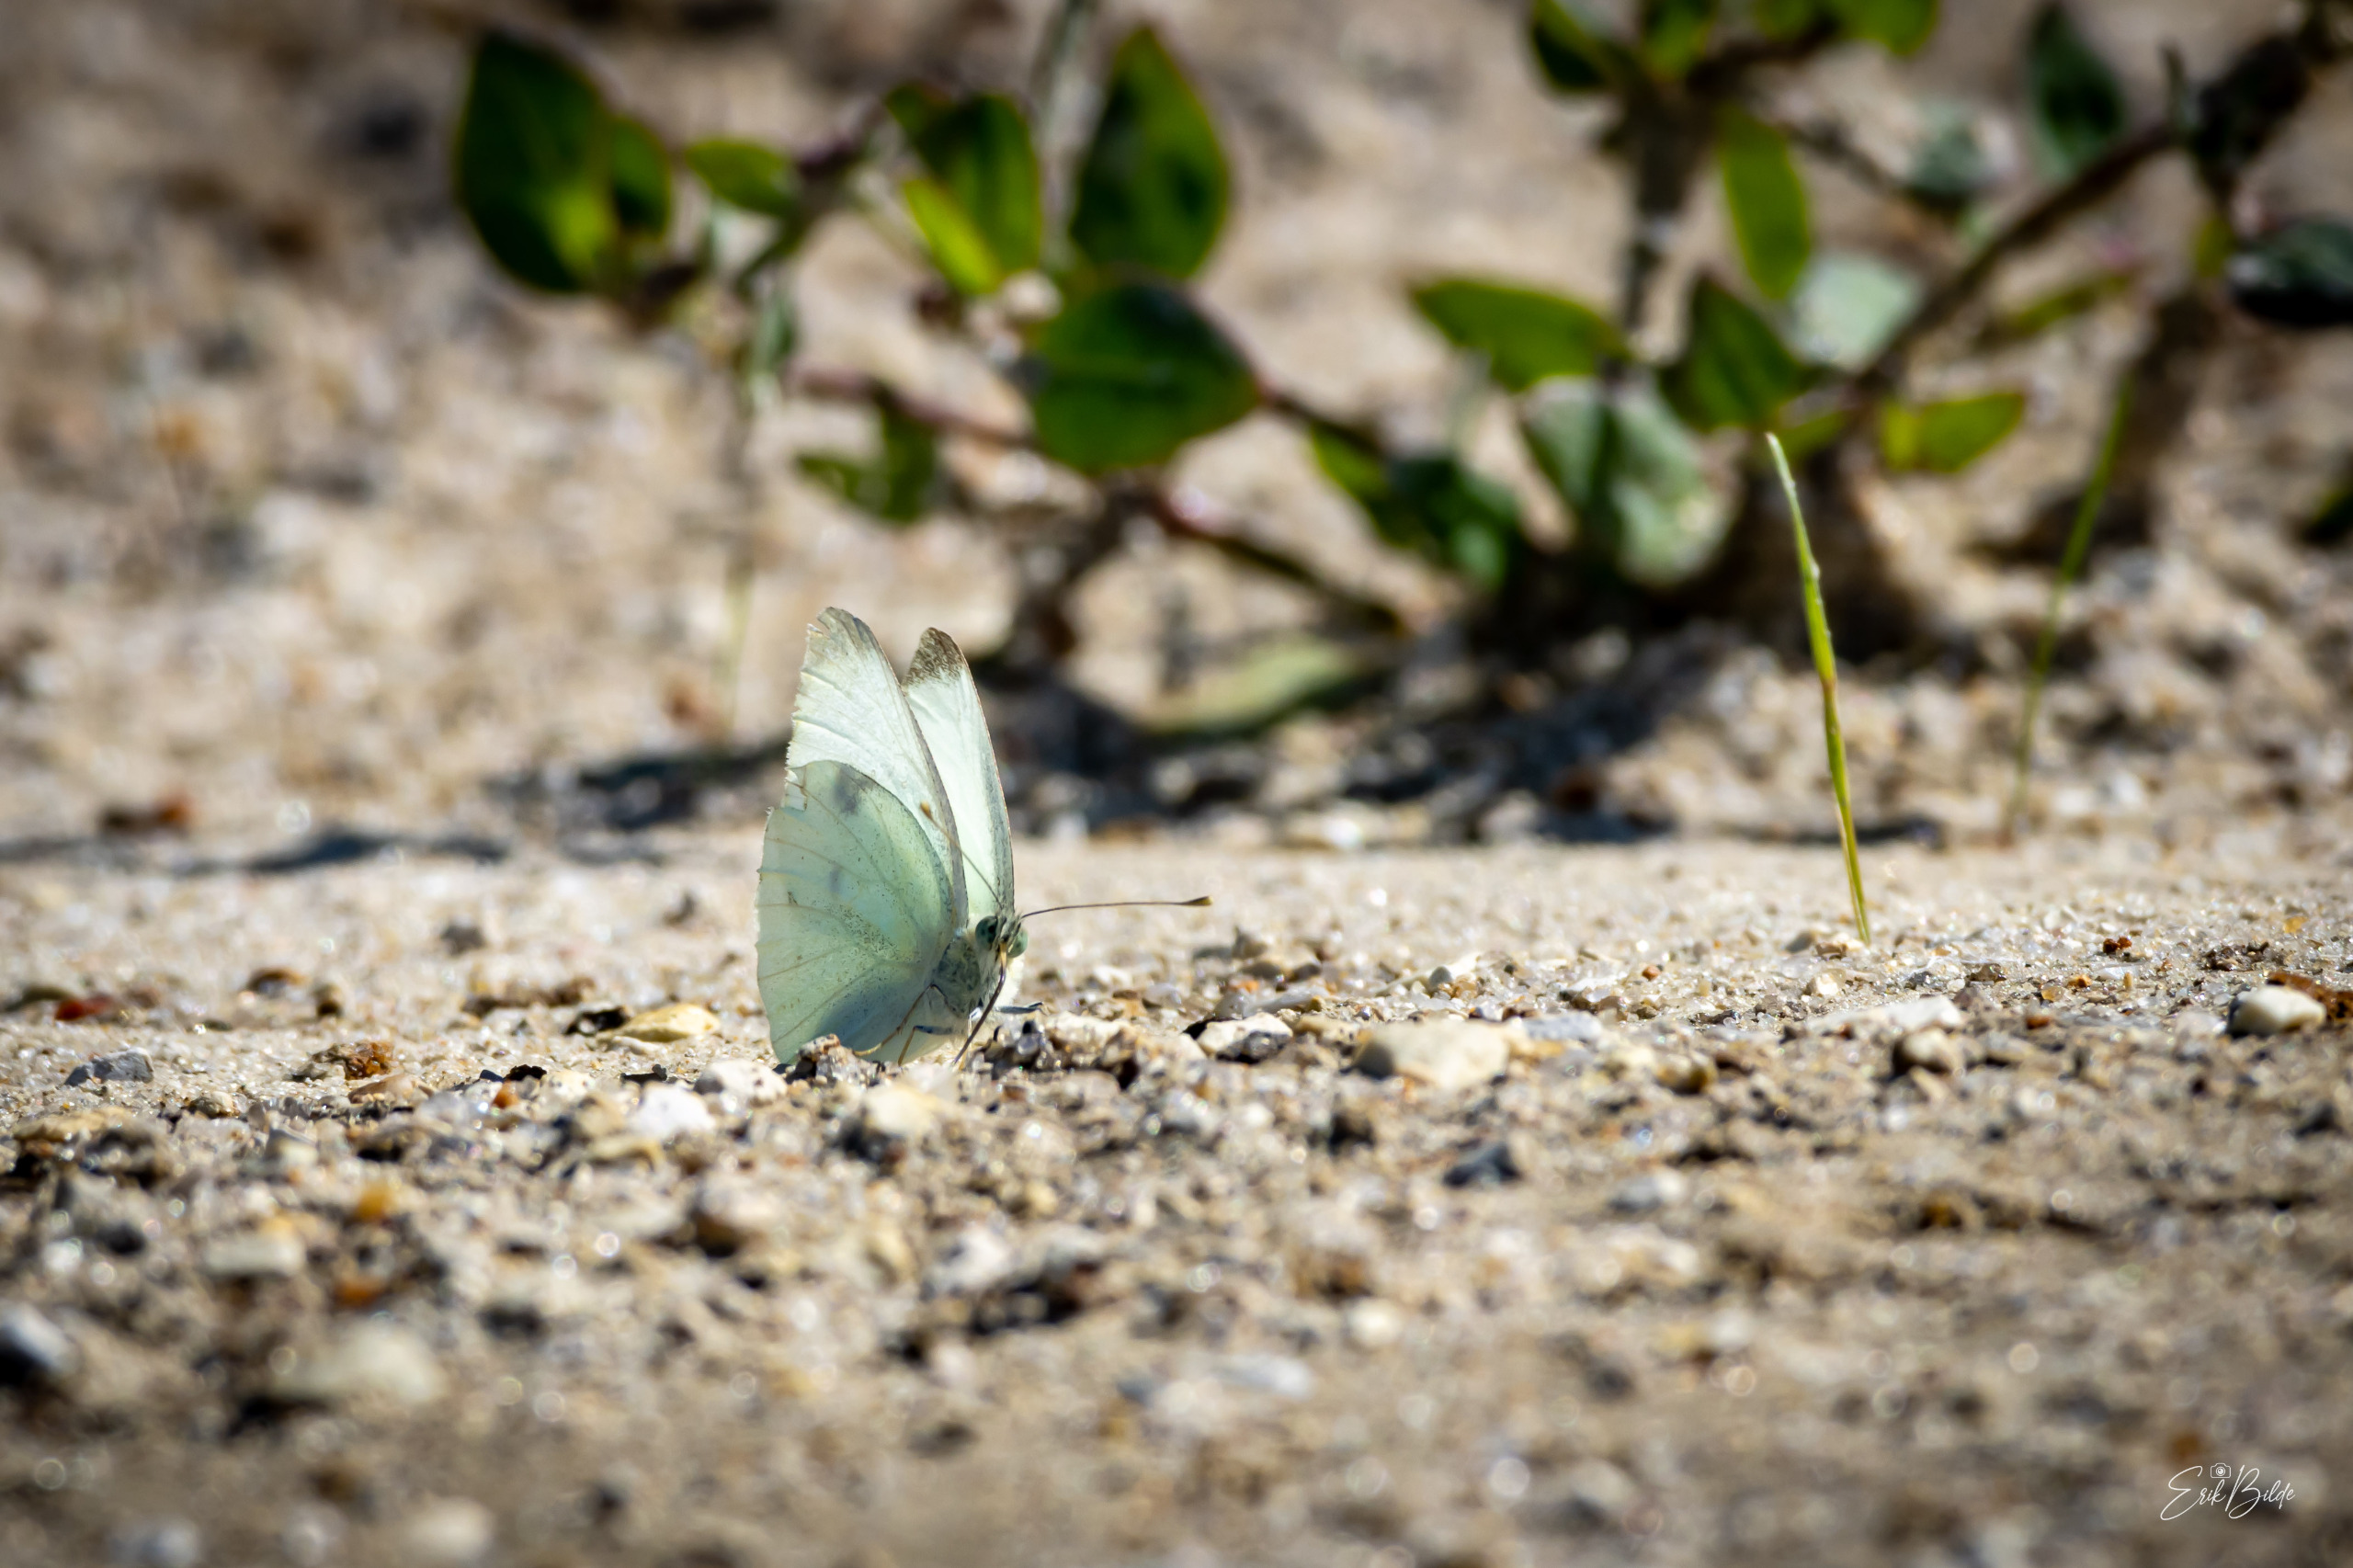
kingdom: Animalia
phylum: Arthropoda
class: Insecta
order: Lepidoptera
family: Pieridae
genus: Pieris
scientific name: Pieris rapae
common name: Lille kålsommerfugl
